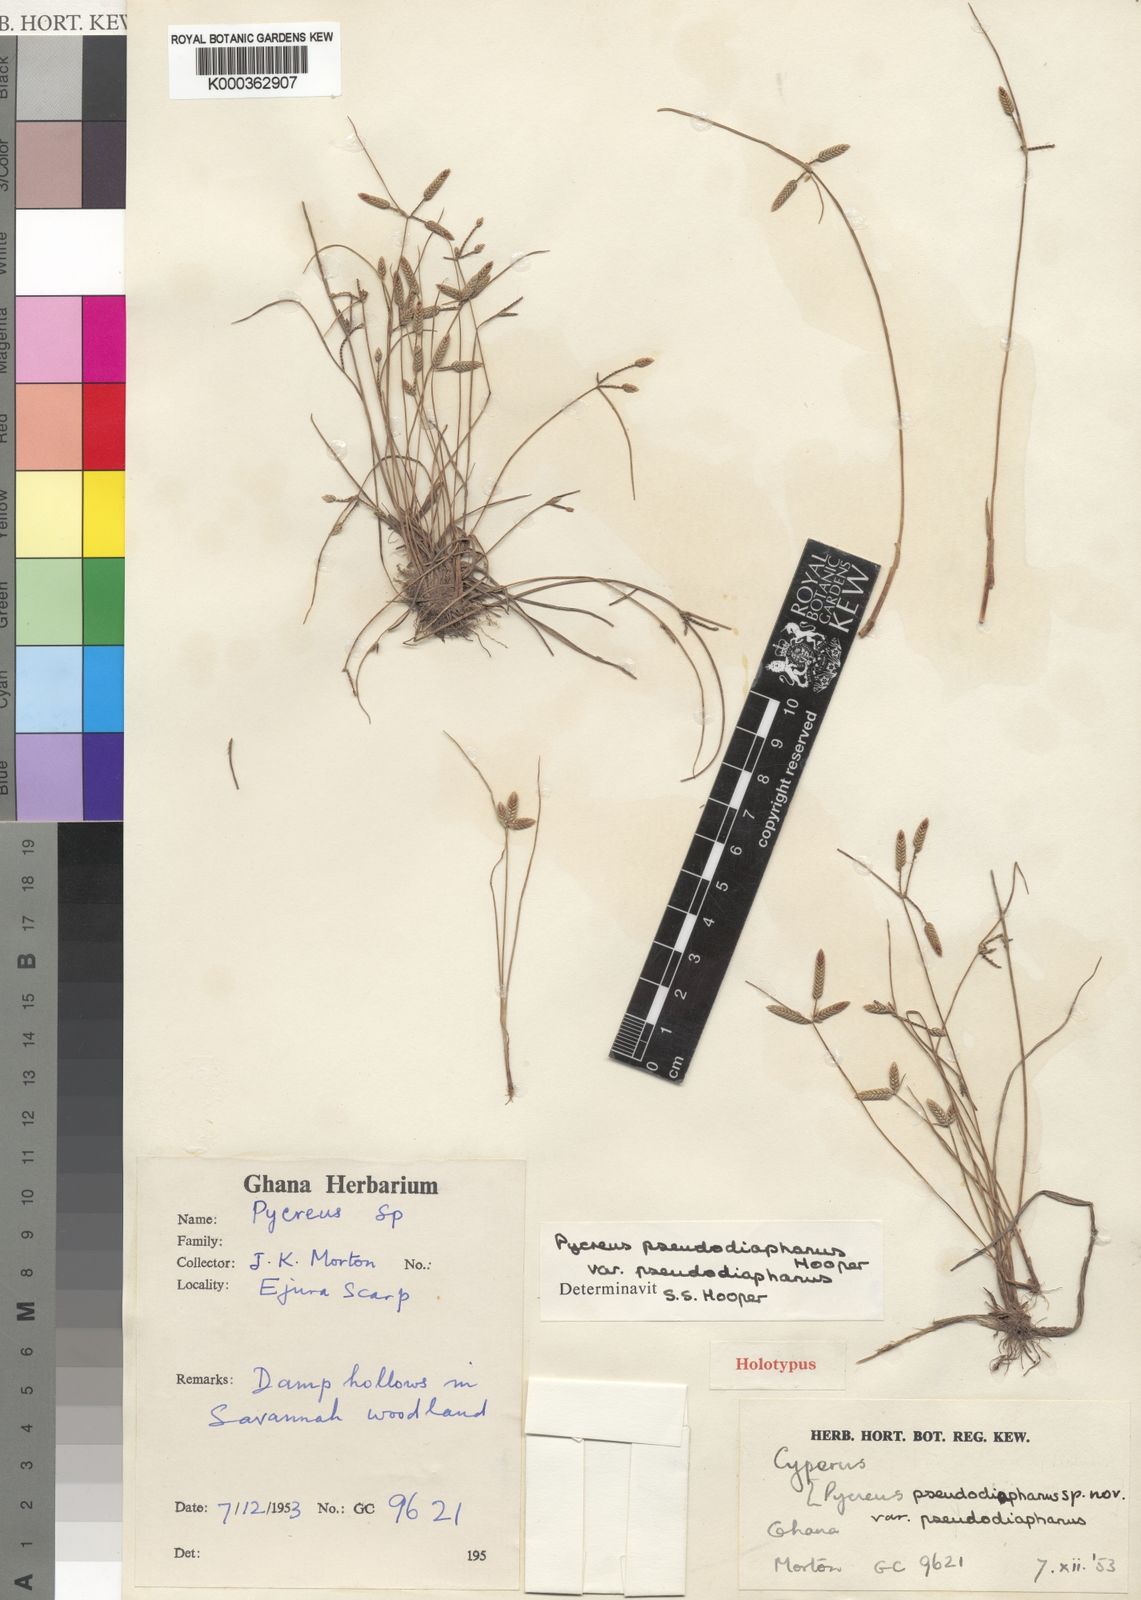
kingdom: Plantae
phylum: Tracheophyta
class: Liliopsida
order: Poales
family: Cyperaceae
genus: Cyperus
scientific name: Cyperus pseudodiaphanus
